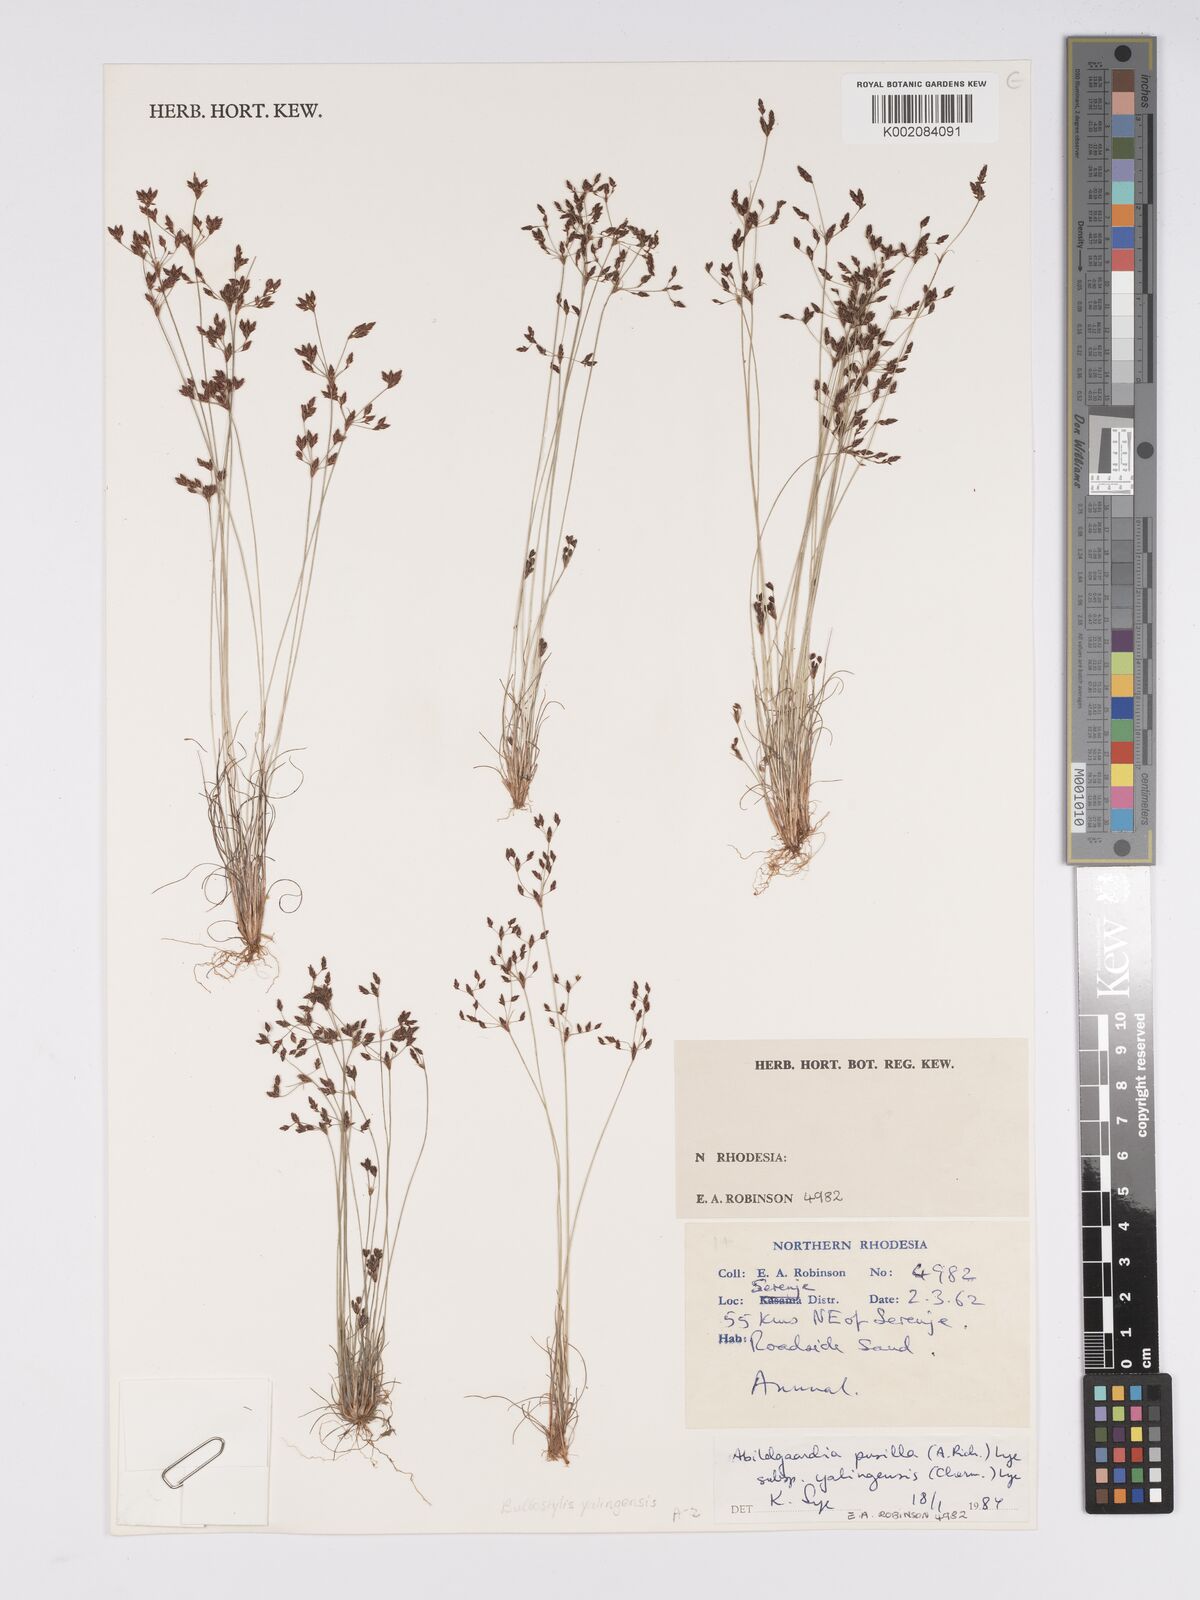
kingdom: Plantae
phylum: Tracheophyta
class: Liliopsida
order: Poales
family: Cyperaceae
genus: Bulbostylis
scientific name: Bulbostylis pusilla
